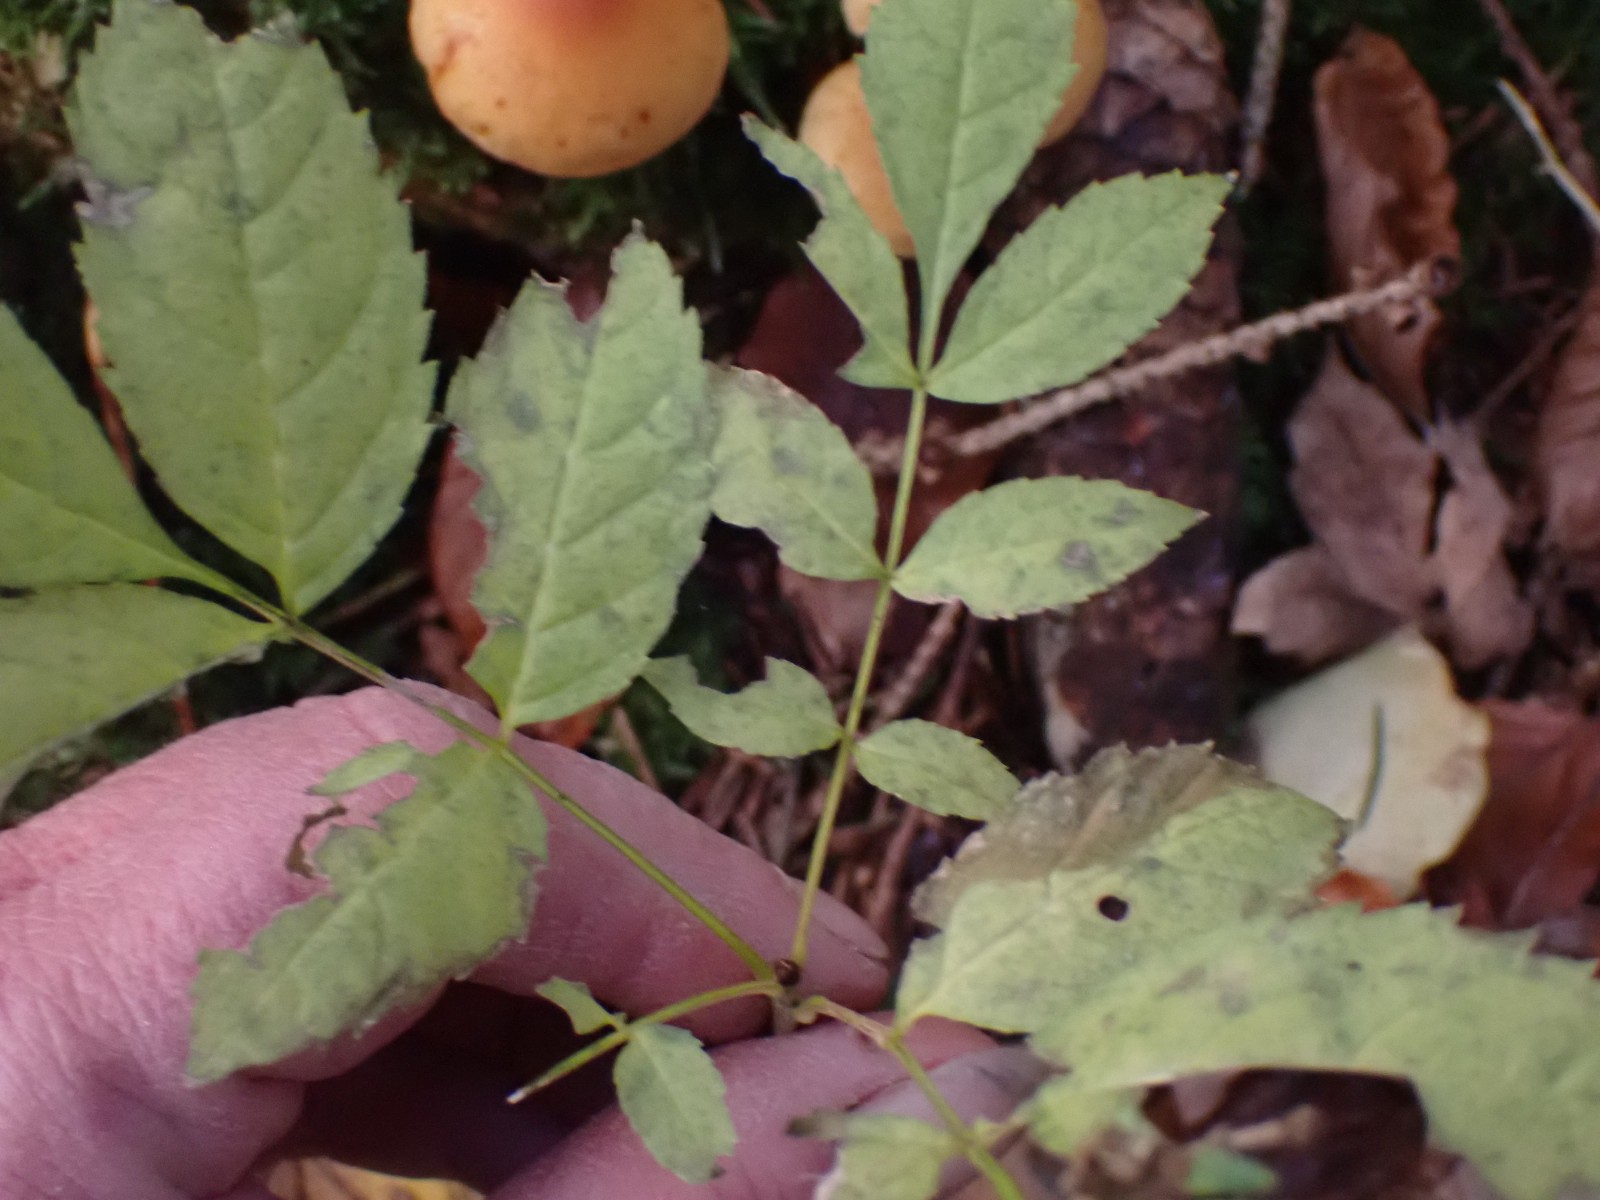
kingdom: Fungi
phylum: Basidiomycota
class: Agaricomycetes
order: Agaricales
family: Hymenogastraceae
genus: Gymnopilus
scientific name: Gymnopilus penetrans
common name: plettet flammehat
